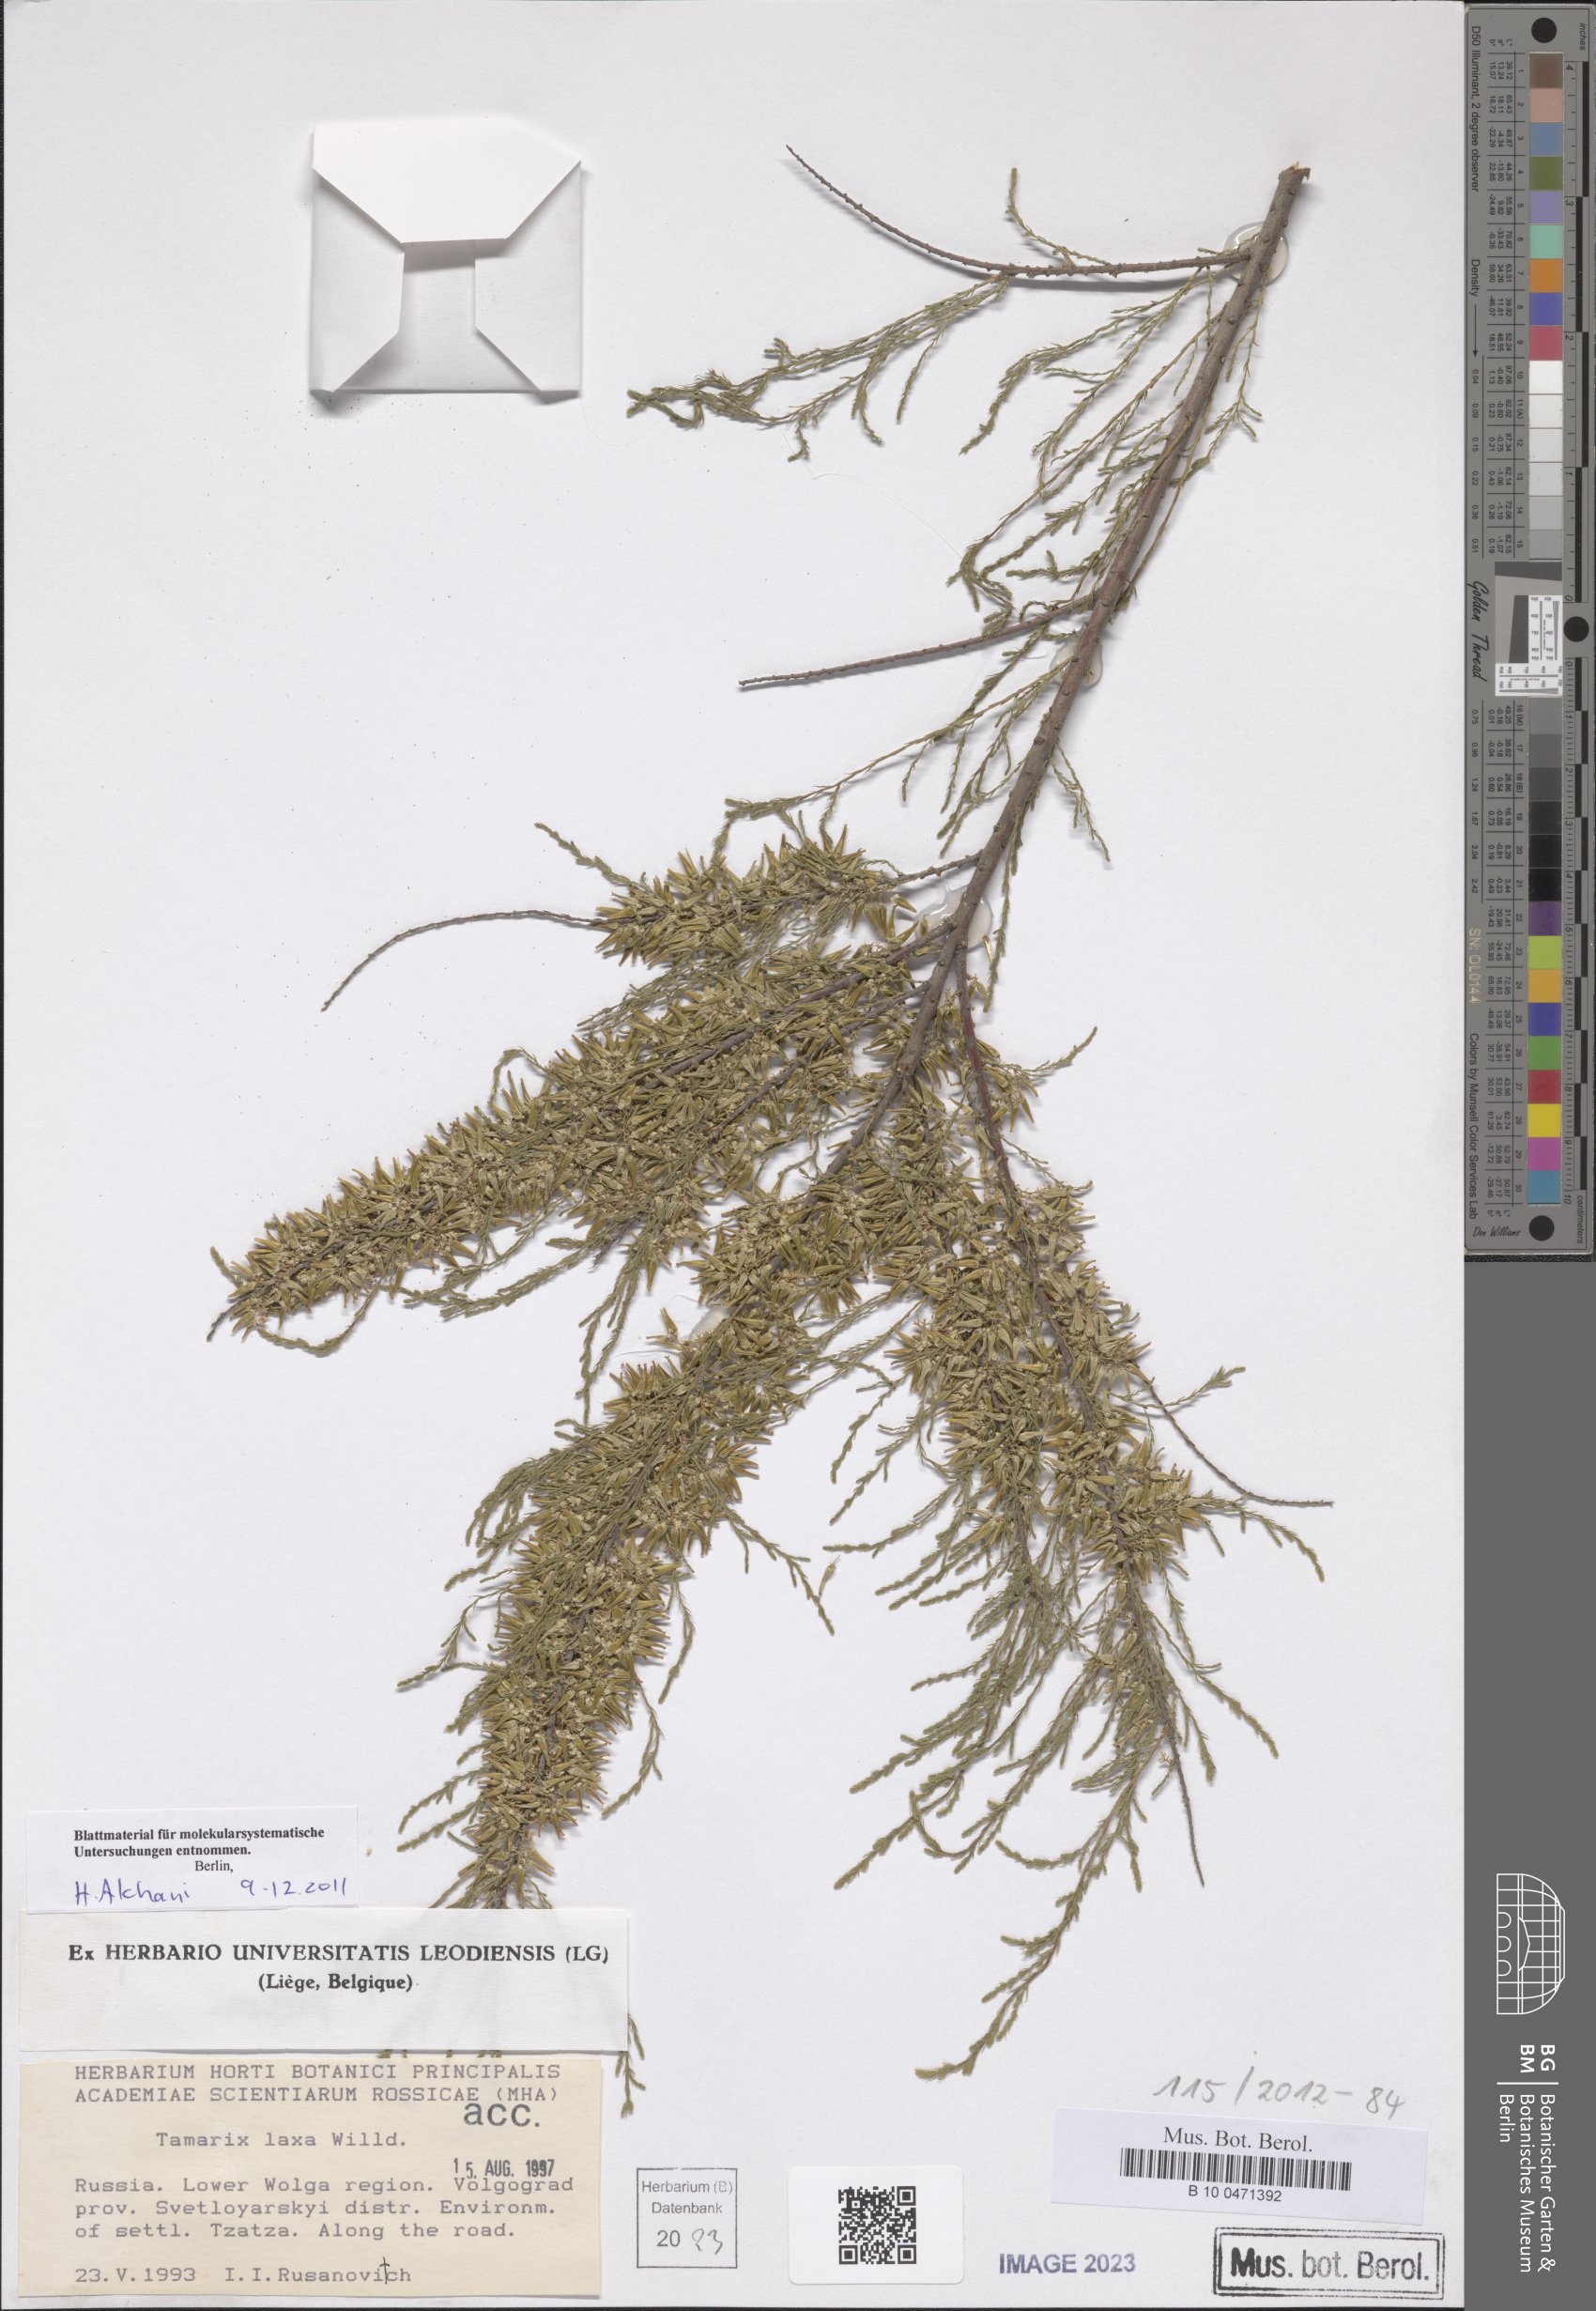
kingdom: Plantae
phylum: Tracheophyta
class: Magnoliopsida
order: Caryophyllales
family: Tamaricaceae
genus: Tamarix
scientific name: Tamarix laxa
